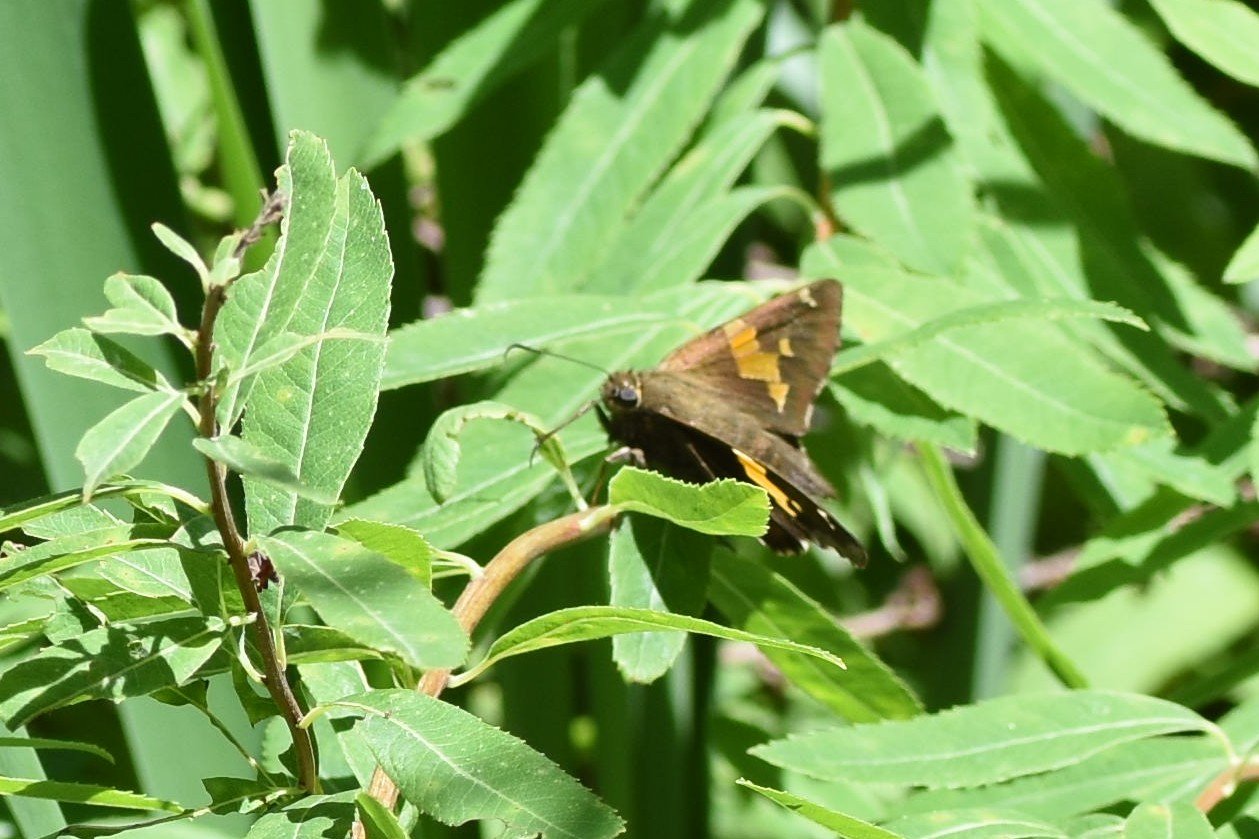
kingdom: Animalia
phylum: Arthropoda
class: Insecta
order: Lepidoptera
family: Hesperiidae
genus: Epargyreus
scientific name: Epargyreus clarus
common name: Silver-spotted Skipper
